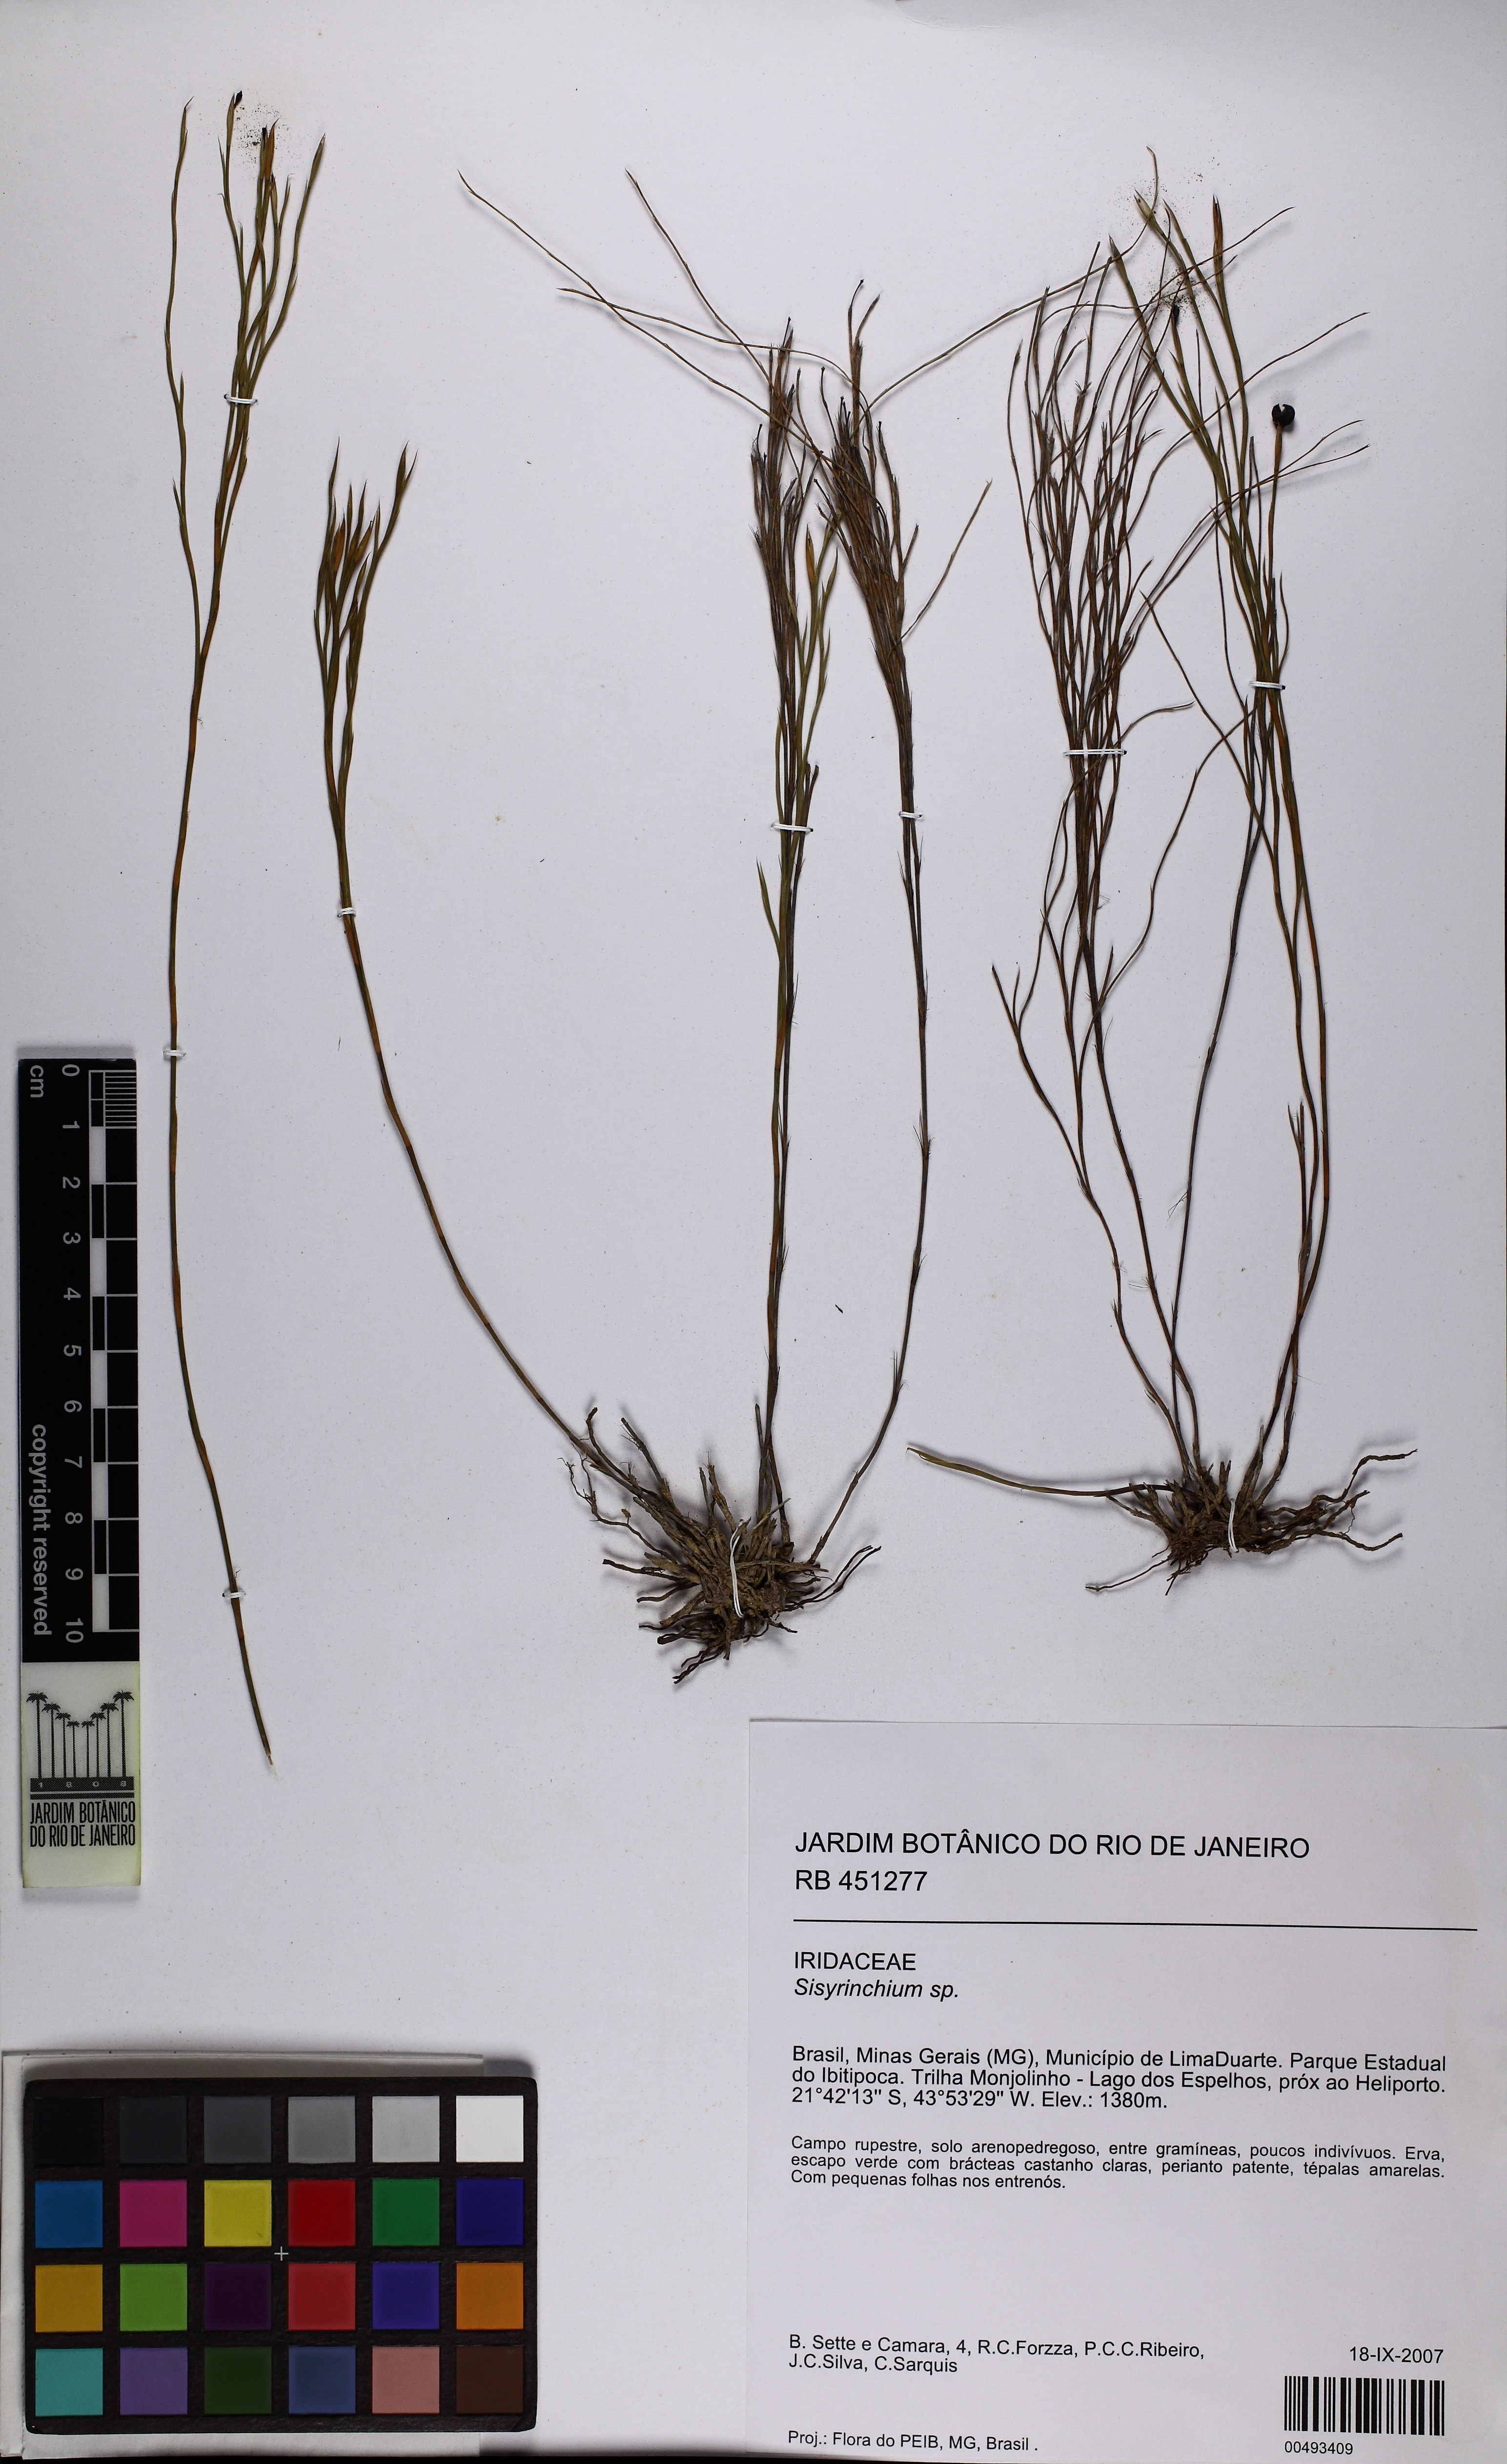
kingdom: Plantae
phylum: Tracheophyta
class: Liliopsida
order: Asparagales
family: Iridaceae
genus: Sisyrinchium
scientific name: Sisyrinchium
